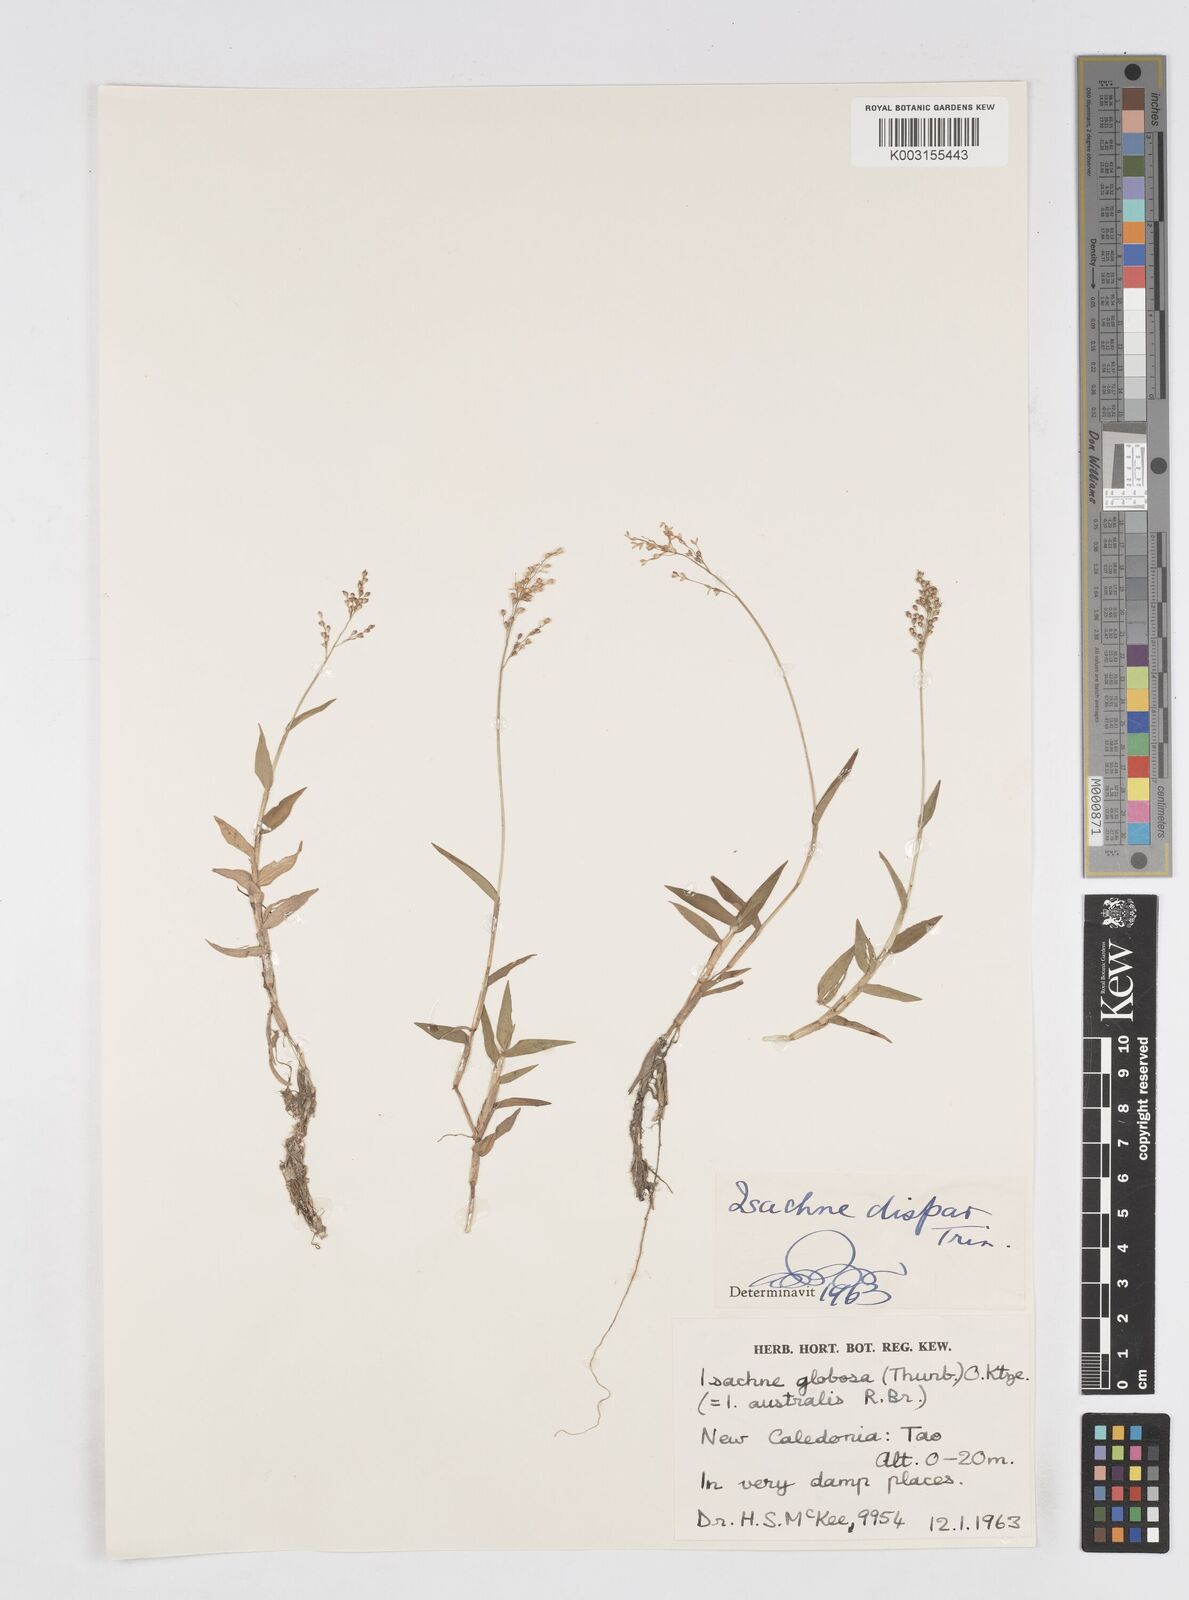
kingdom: Plantae
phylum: Tracheophyta
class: Liliopsida
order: Poales
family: Poaceae
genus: Isachne
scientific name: Isachne globosa
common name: Swamp millet
